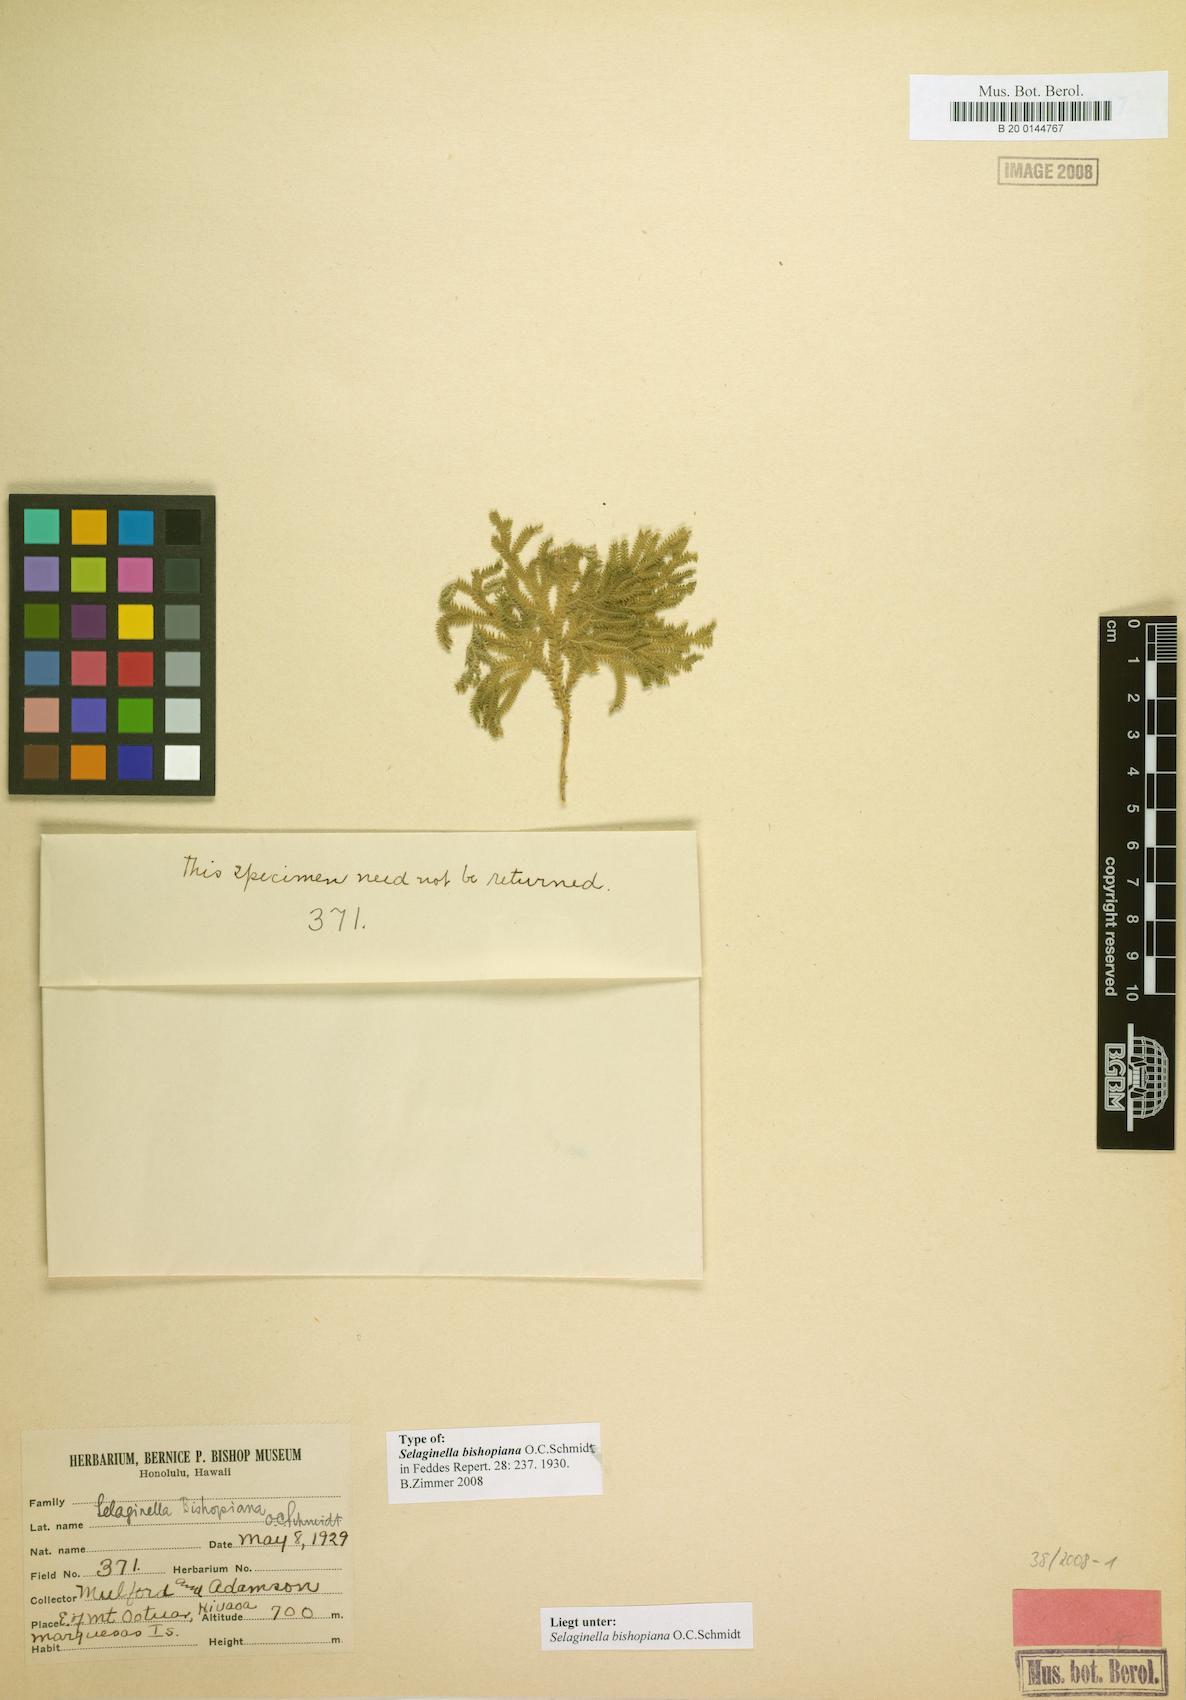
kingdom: Plantae
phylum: Tracheophyta
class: Lycopodiopsida
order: Selaginellales
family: Selaginellaceae
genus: Selaginella
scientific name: Selaginella arbuscula
